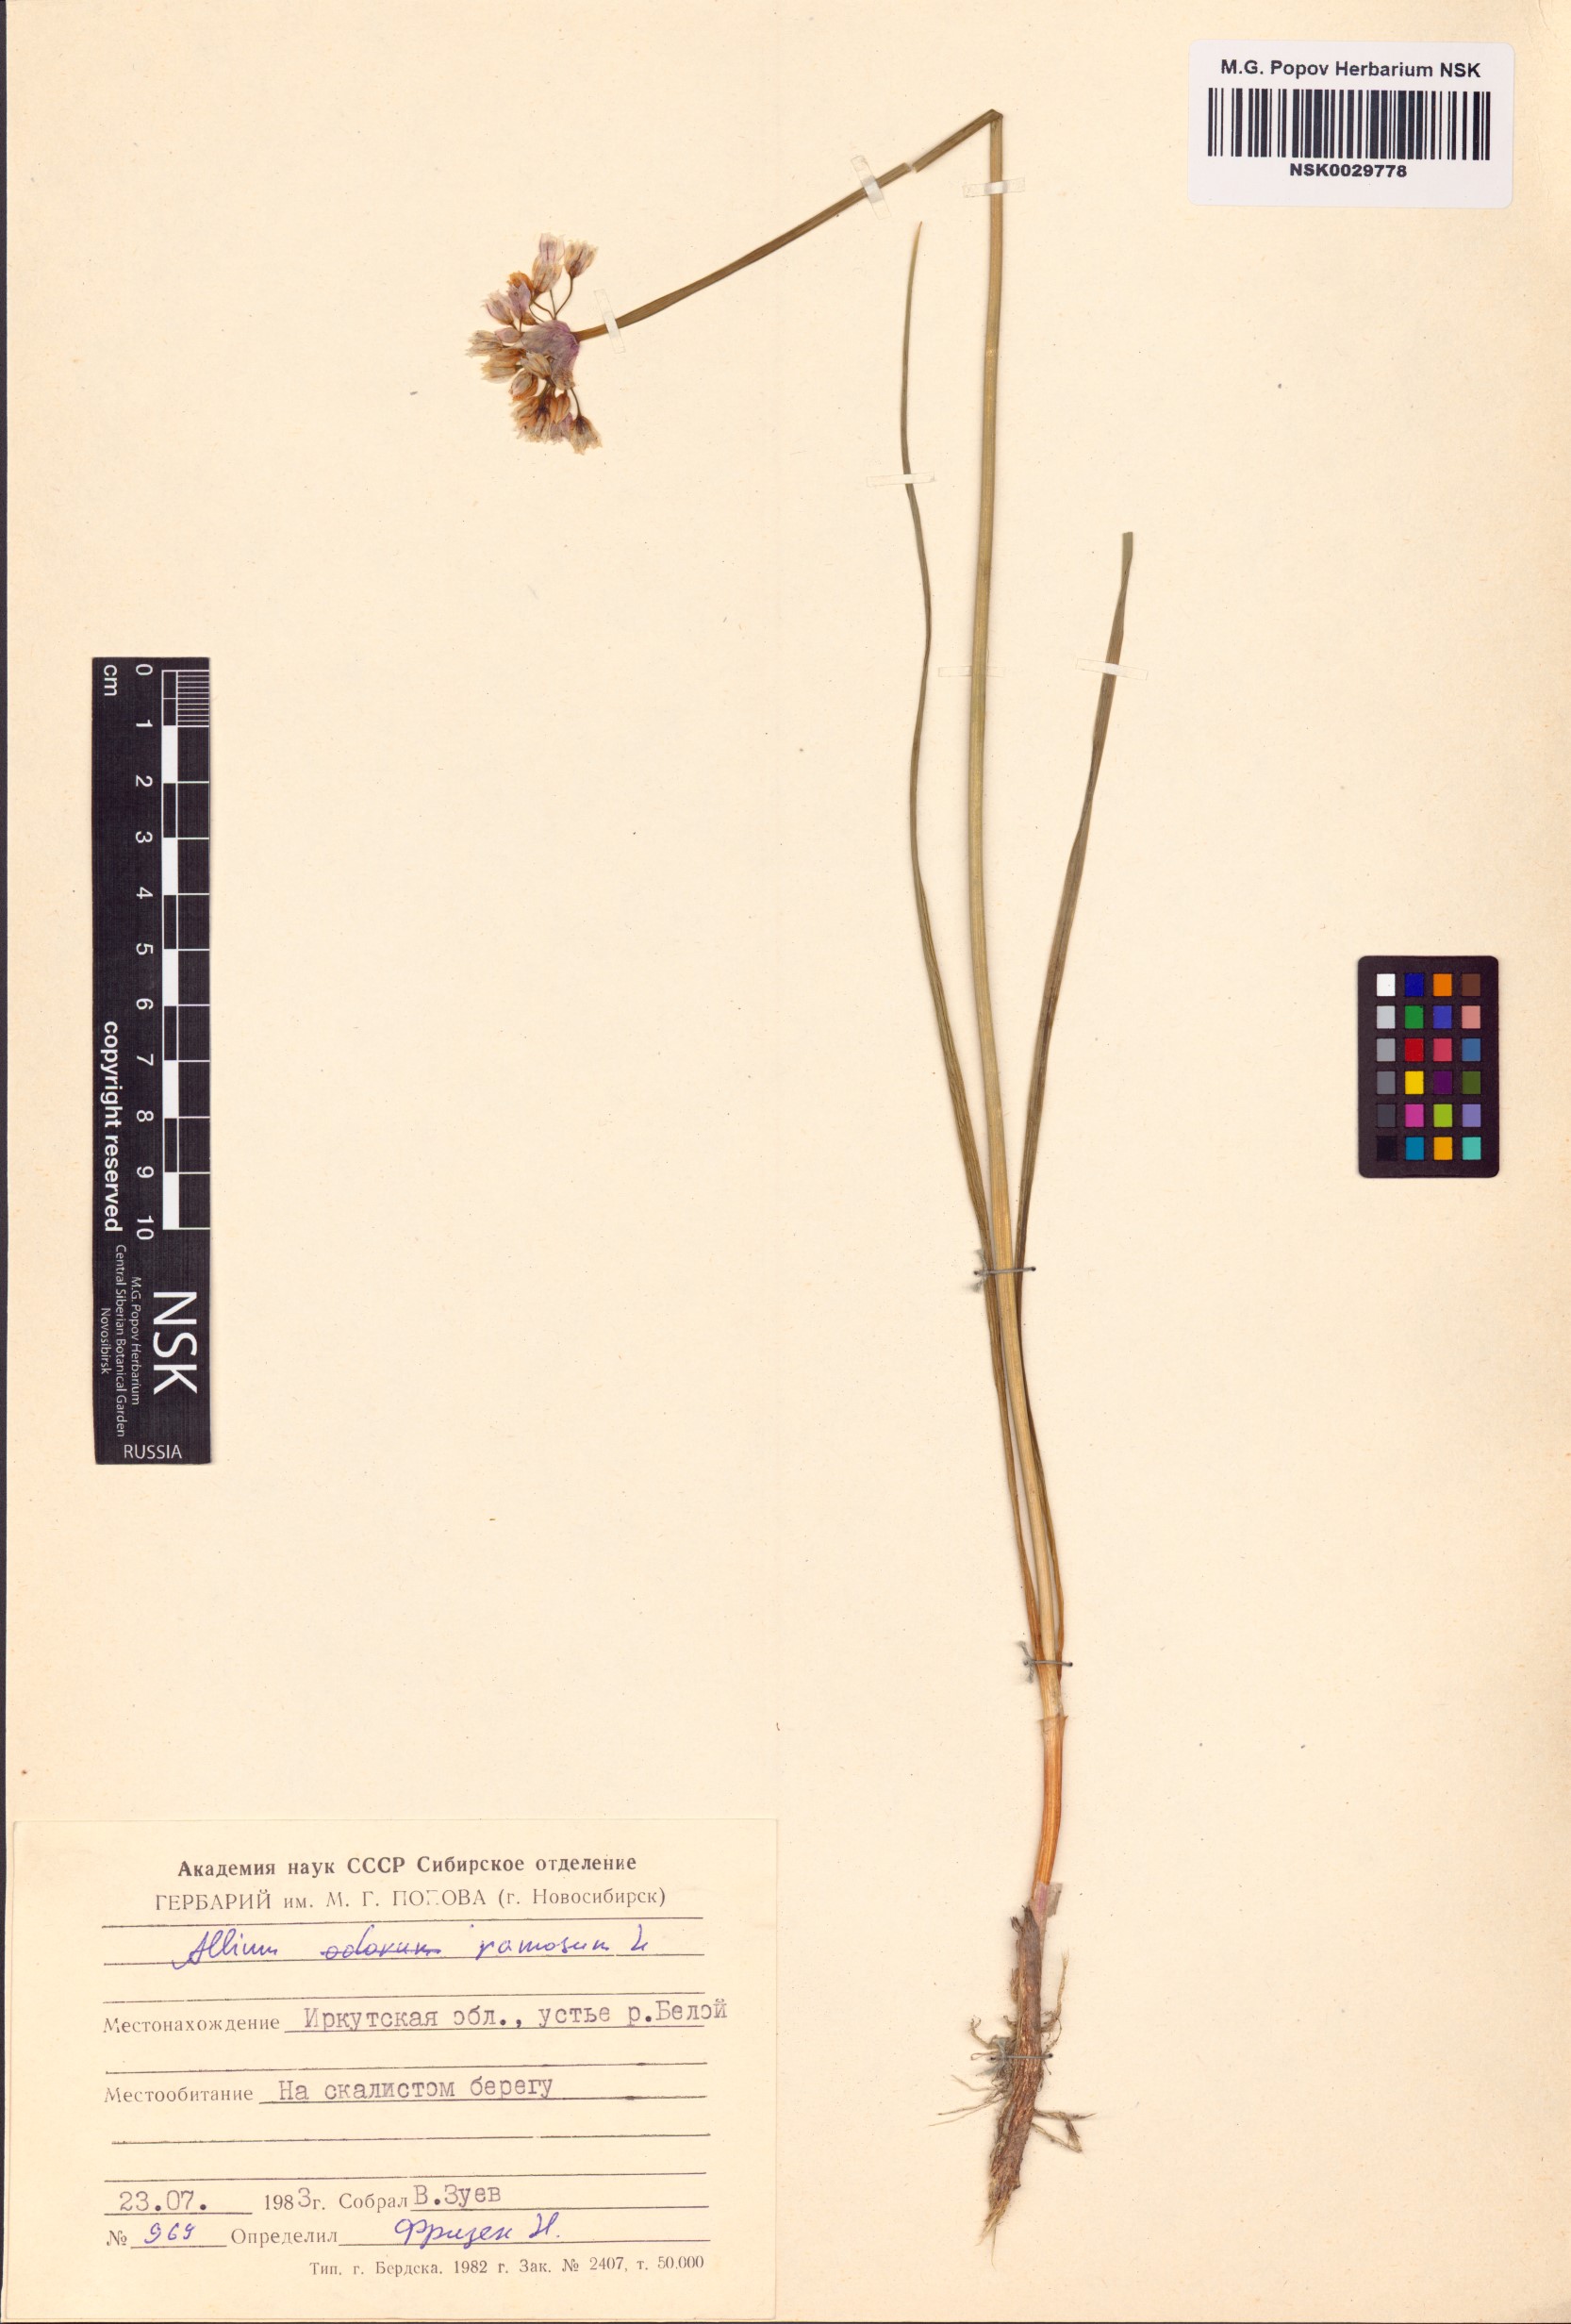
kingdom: Plantae
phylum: Tracheophyta
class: Liliopsida
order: Asparagales
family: Amaryllidaceae
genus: Allium
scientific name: Allium ramosum
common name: Fragrant garlic
